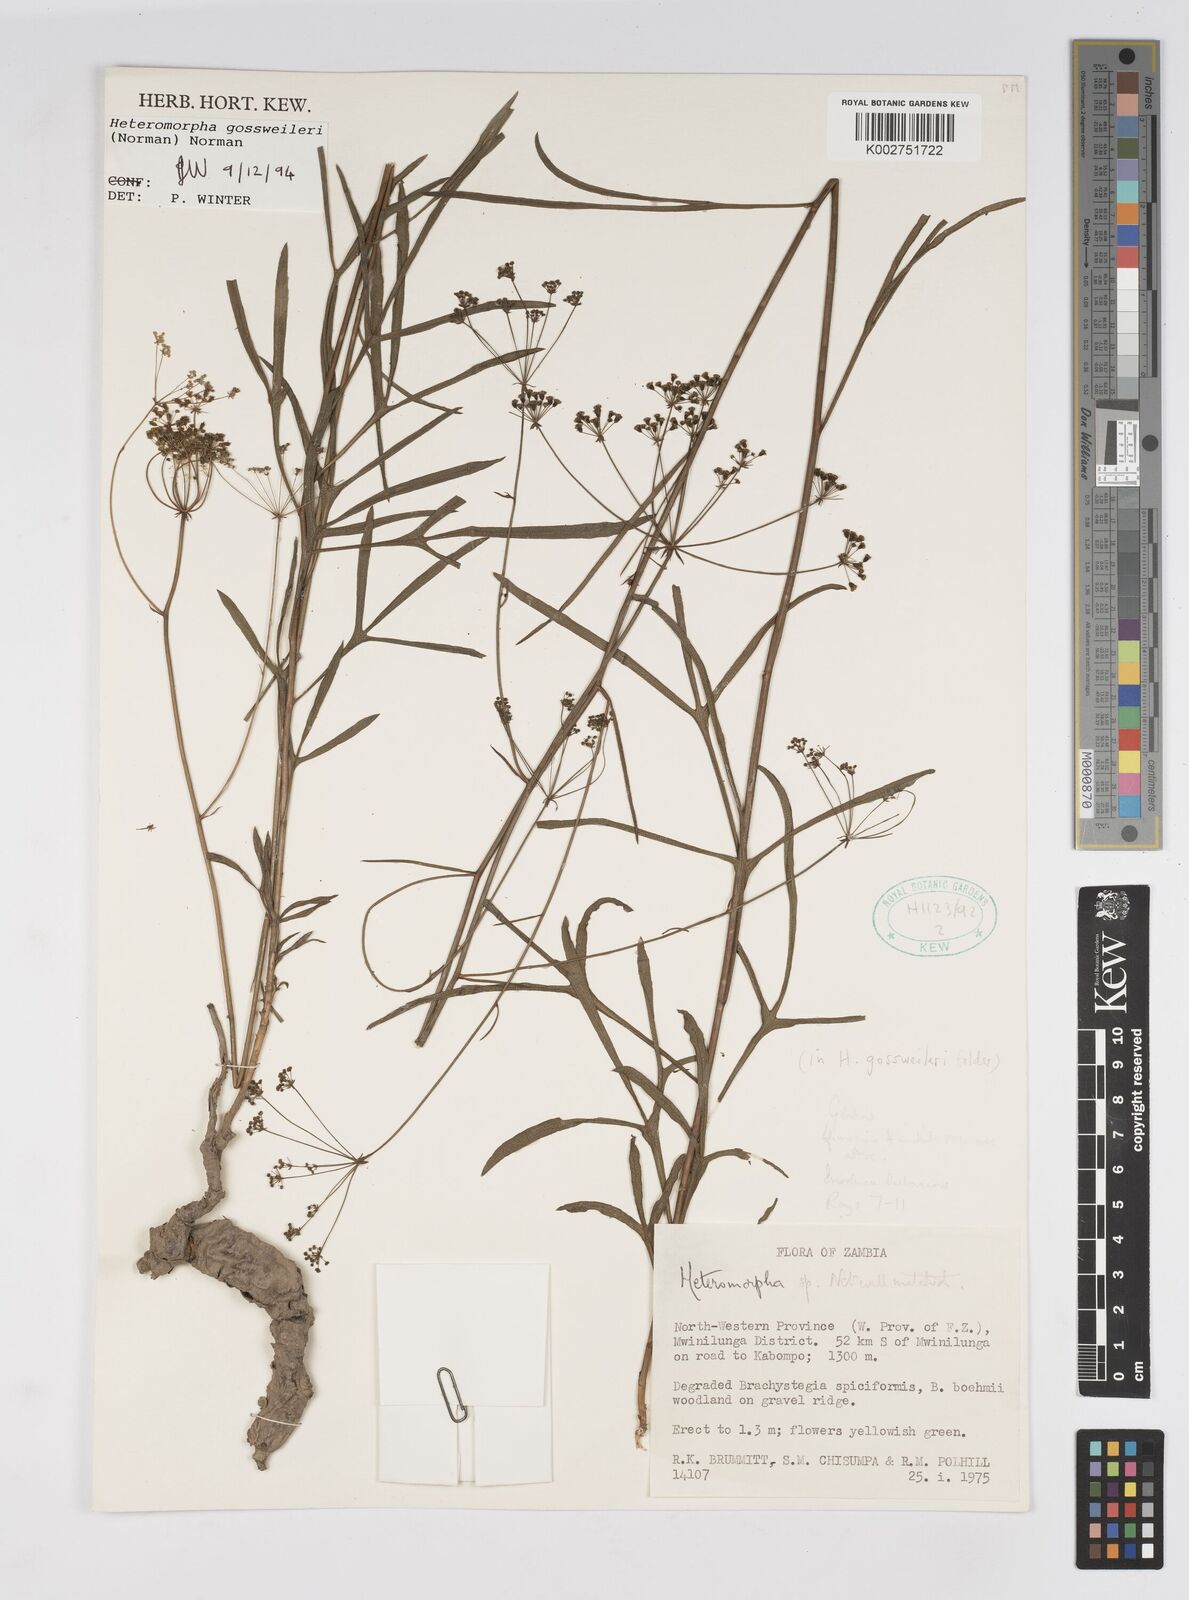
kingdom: Plantae
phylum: Tracheophyta
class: Magnoliopsida
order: Apiales
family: Apiaceae
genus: Heteromorpha
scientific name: Heteromorpha gossweileri
